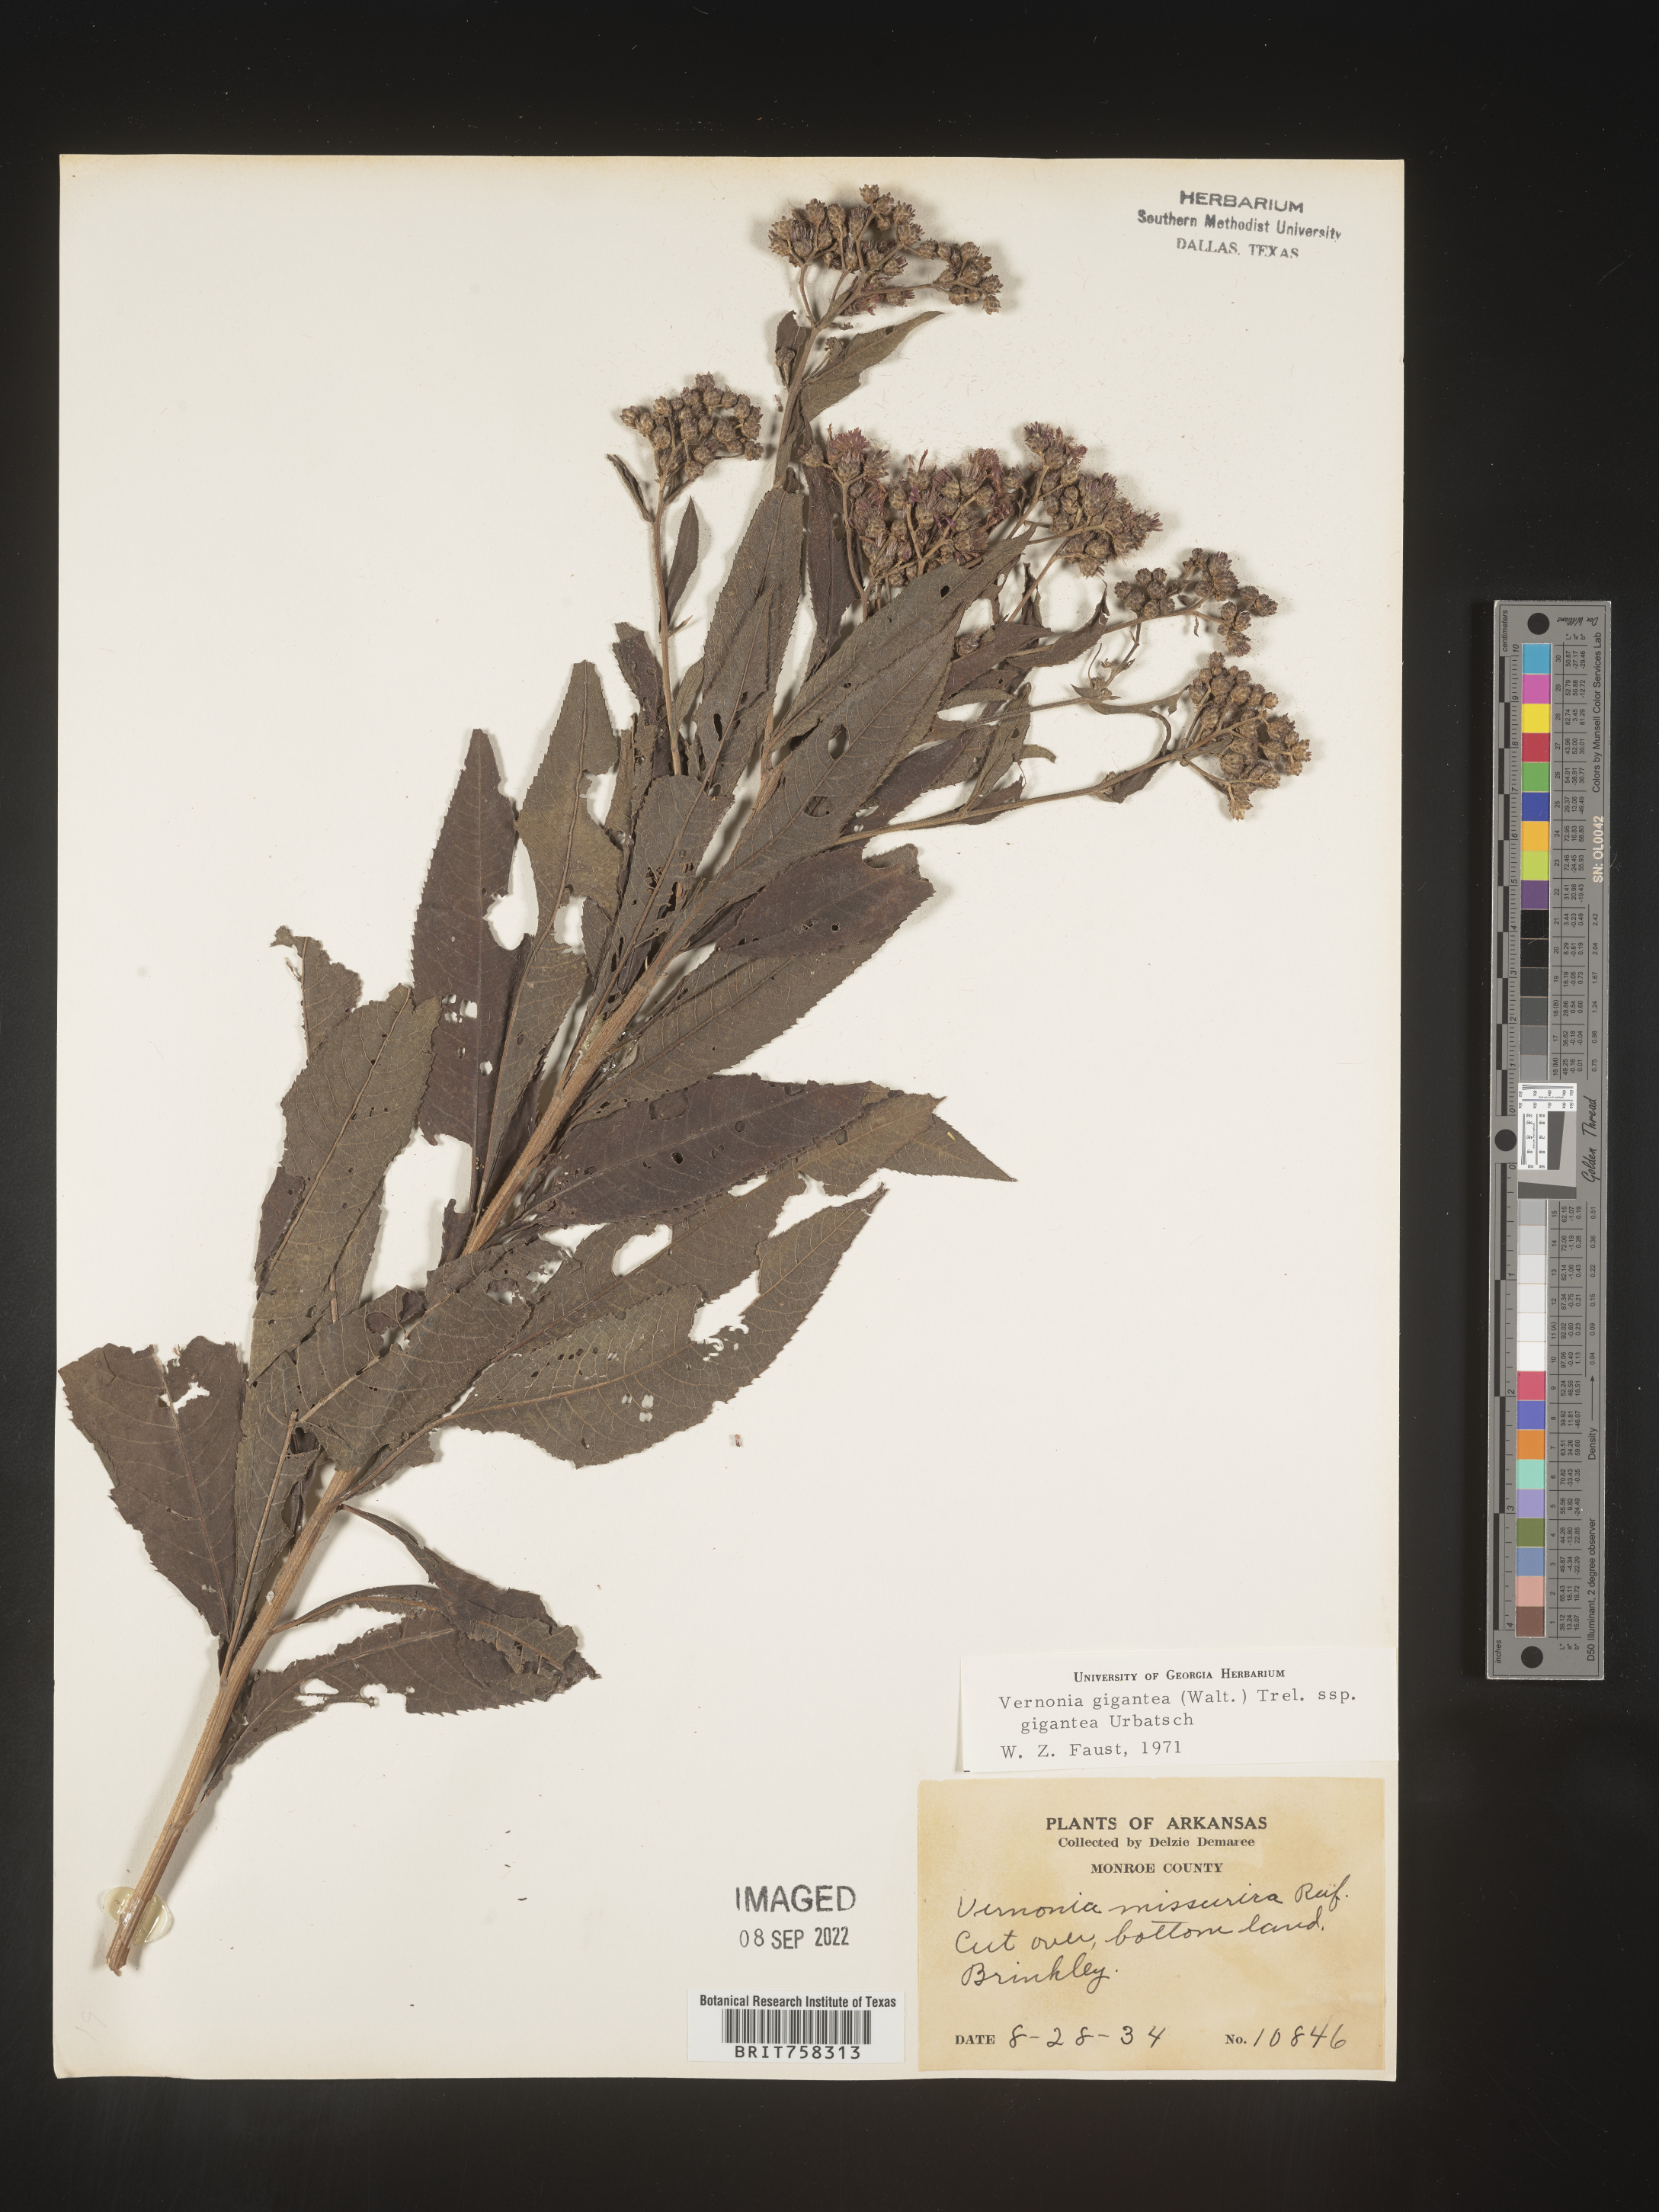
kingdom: Plantae
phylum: Tracheophyta
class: Magnoliopsida
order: Asterales
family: Asteraceae
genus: Vernonia
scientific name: Vernonia gigantea
